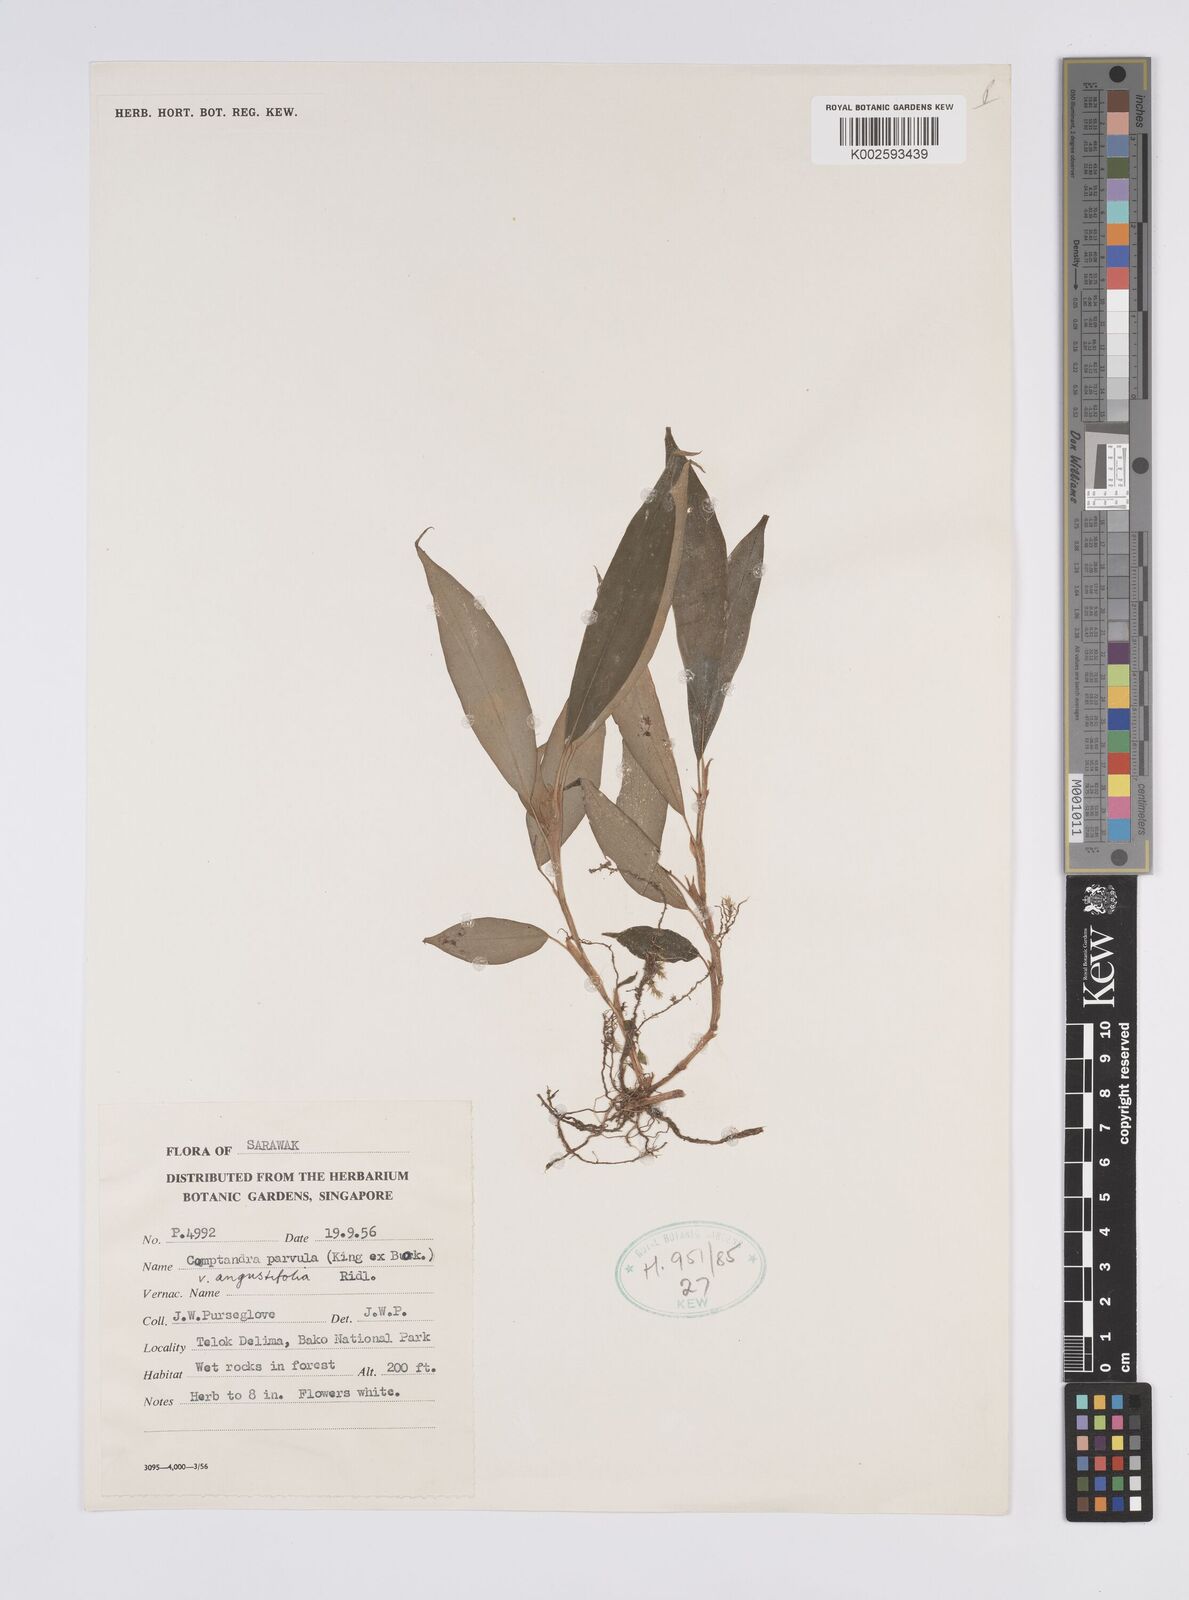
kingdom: Plantae
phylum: Tracheophyta
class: Liliopsida
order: Zingiberales
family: Zingiberaceae
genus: Camptandra
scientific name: Camptandra parvula
